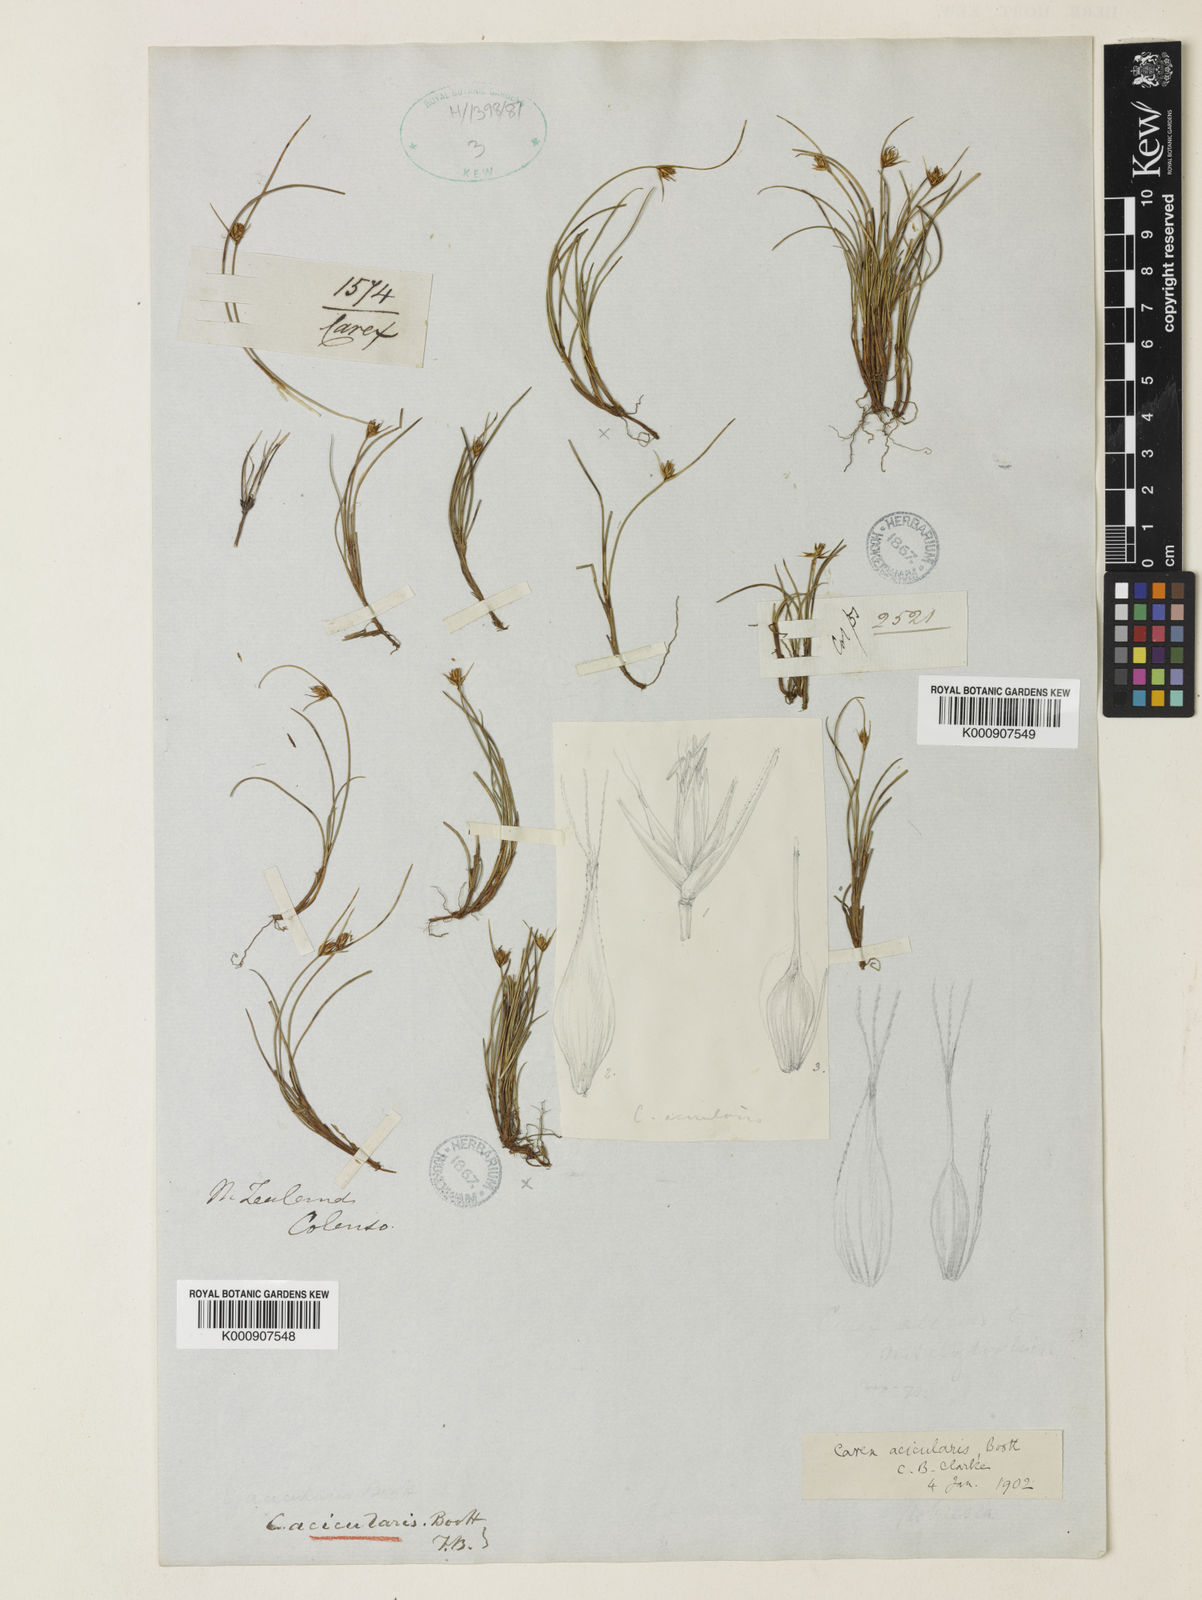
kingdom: Plantae
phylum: Tracheophyta
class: Liliopsida
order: Poales
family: Cyperaceae
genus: Carex
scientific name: Carex acicularis
